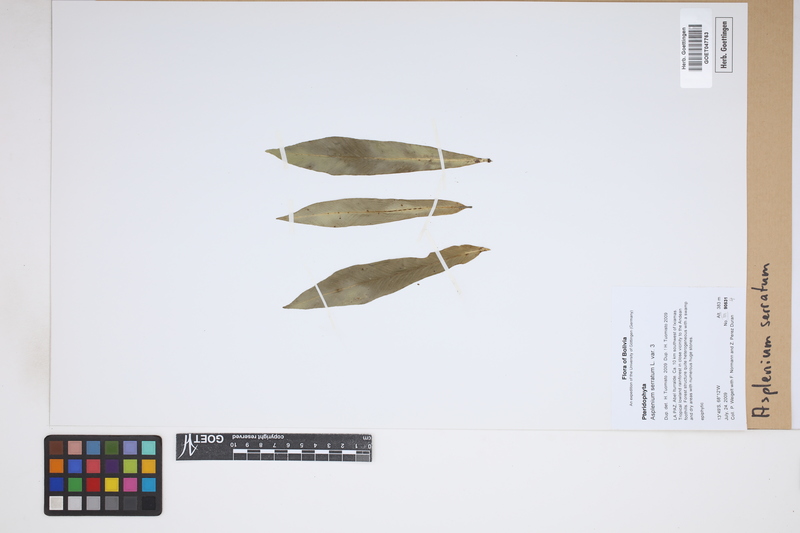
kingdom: Plantae
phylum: Tracheophyta
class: Polypodiopsida
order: Polypodiales
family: Aspleniaceae
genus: Asplenium
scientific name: Asplenium serratum
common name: Wild birdnest fern
